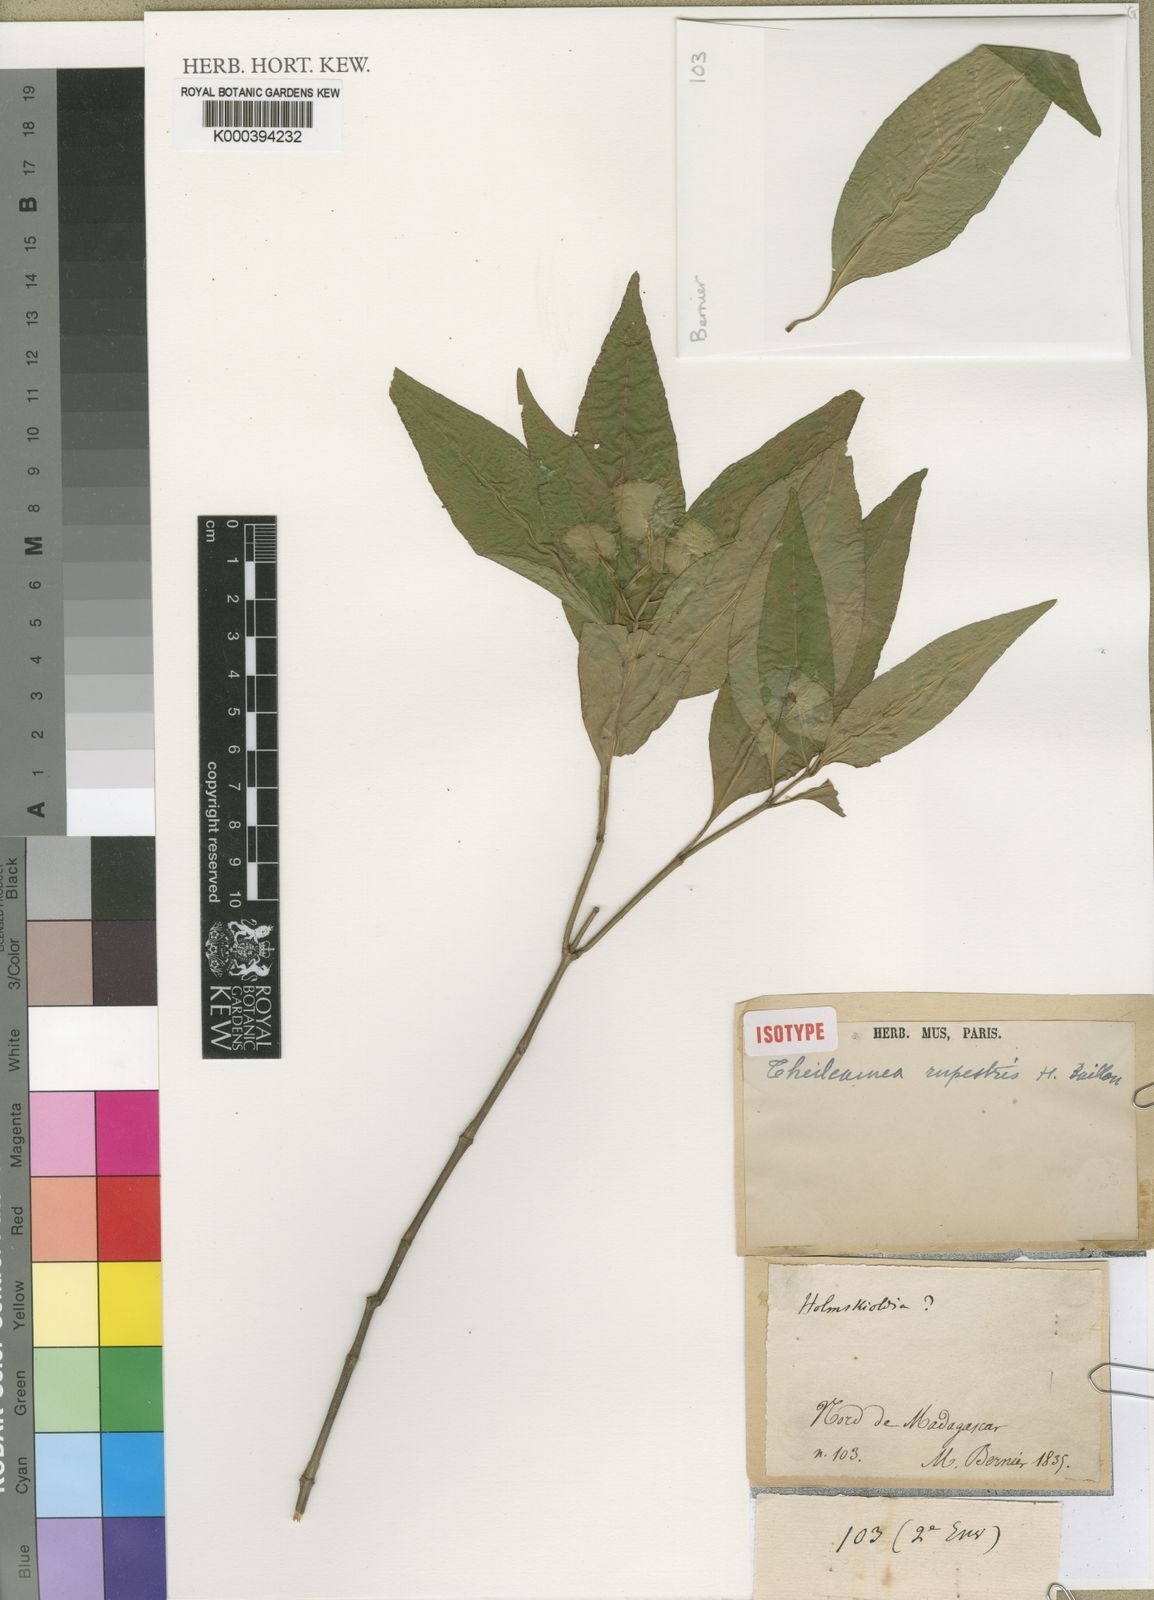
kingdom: Plantae
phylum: Tracheophyta
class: Magnoliopsida
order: Lamiales
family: Acanthaceae
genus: Phaulopsis
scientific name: Phaulopsis rupestris
